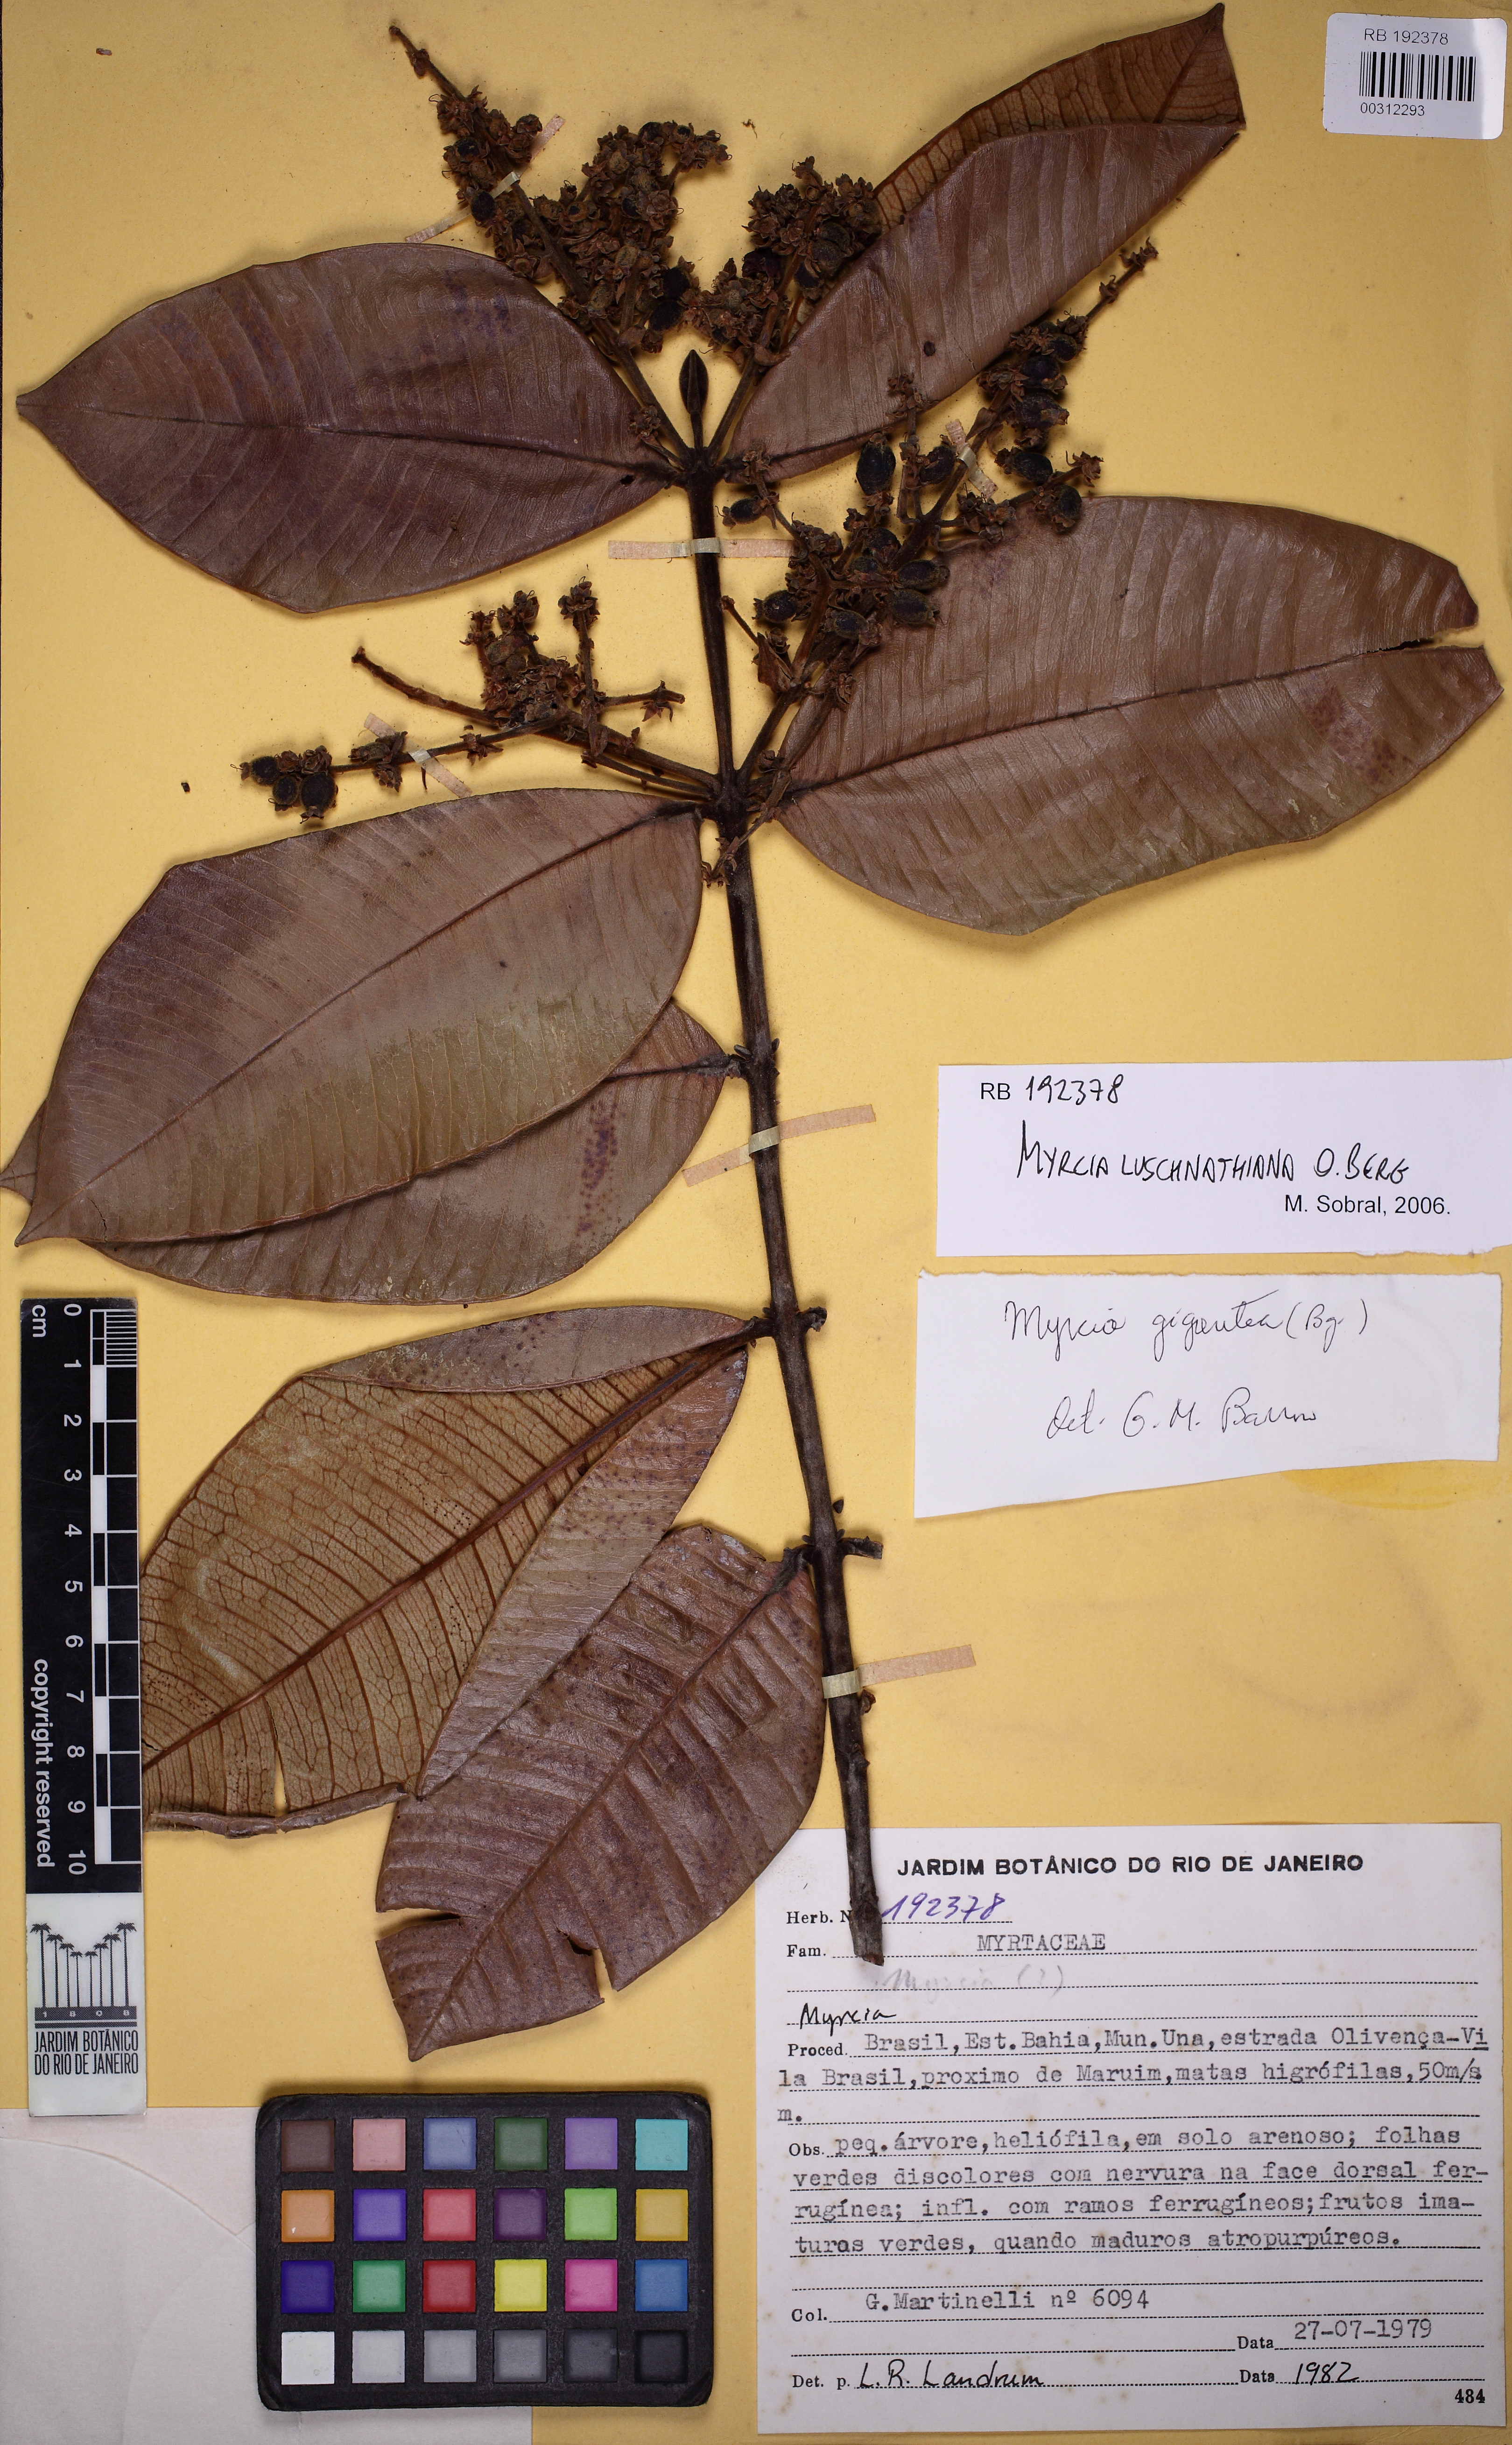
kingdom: Plantae
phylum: Tracheophyta
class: Magnoliopsida
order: Myrtales
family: Myrtaceae
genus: Myrcia
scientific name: Myrcia luschnathiana
